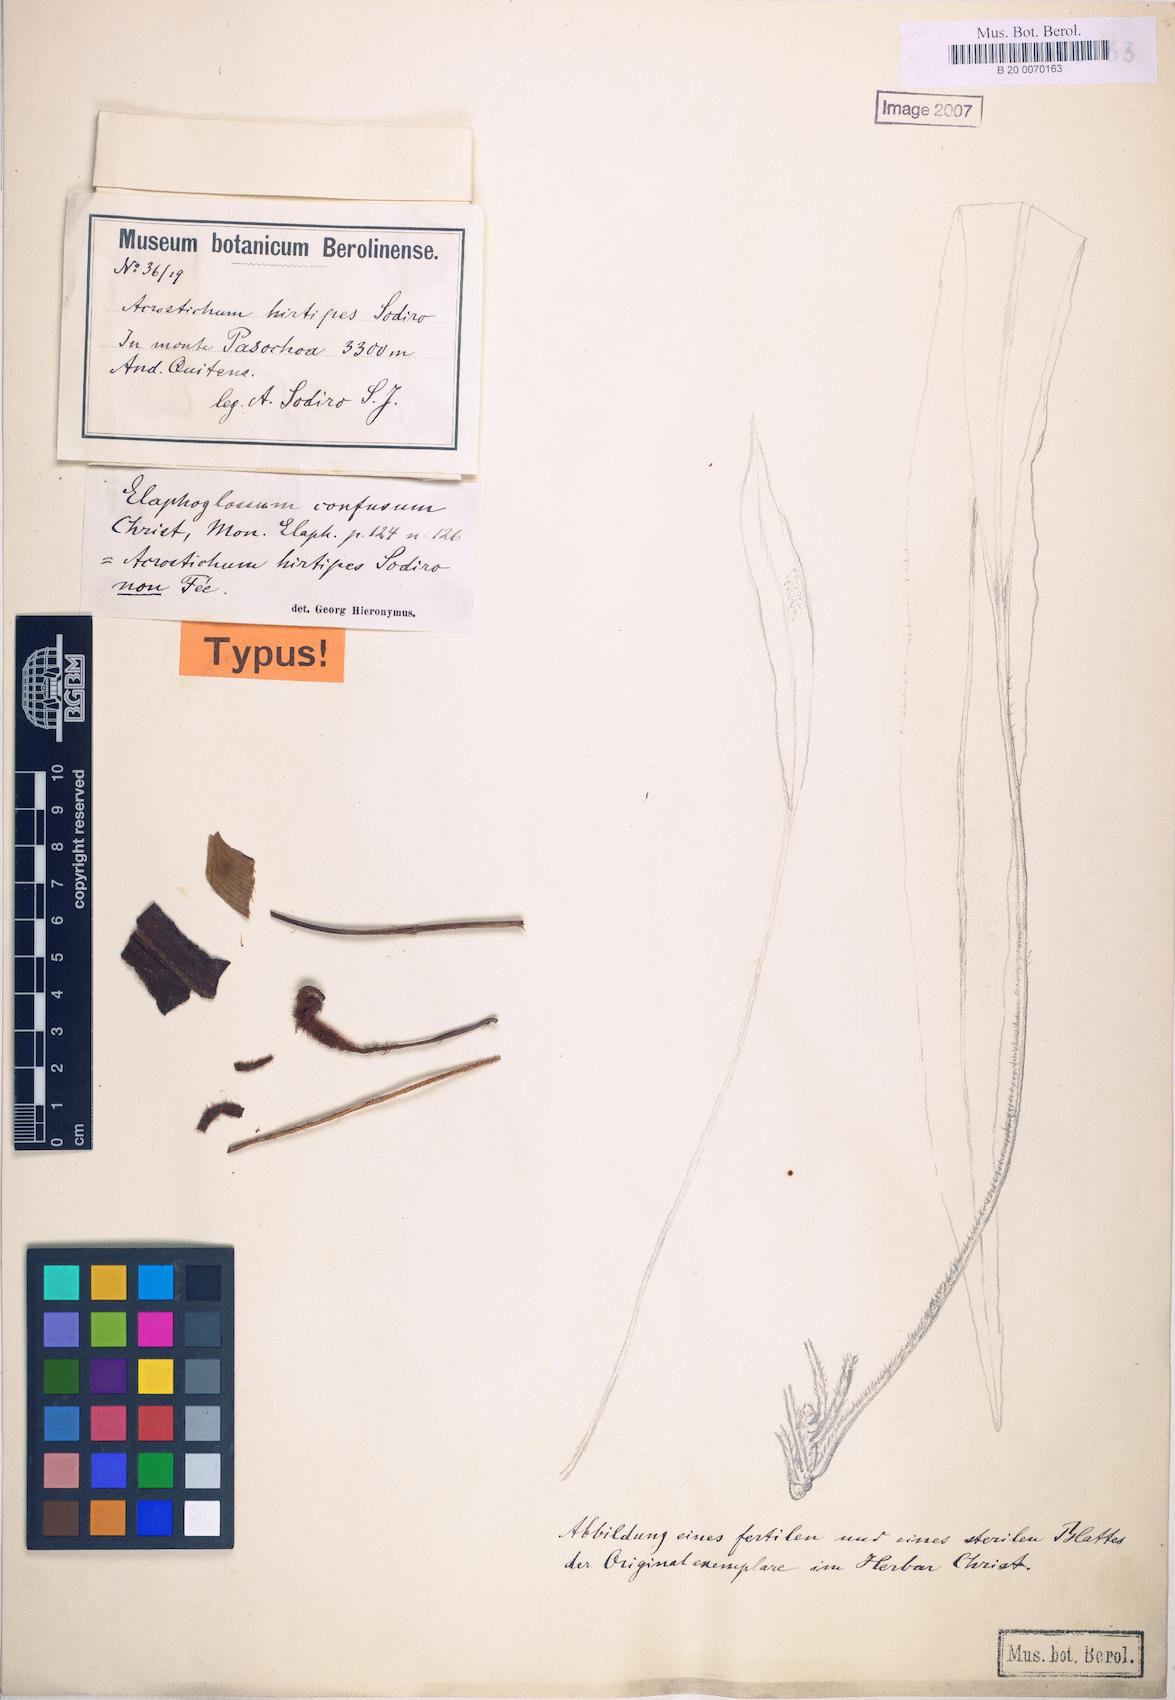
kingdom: Plantae
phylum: Tracheophyta
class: Polypodiopsida
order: Polypodiales
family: Dryopteridaceae
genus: Elaphoglossum
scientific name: Elaphoglossum confusum
